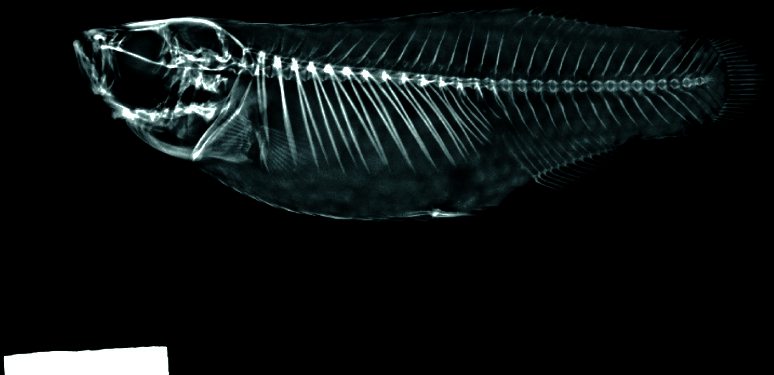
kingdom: Animalia
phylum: Chordata
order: Cyprinodontiformes
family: Valenciidae
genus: Valencia
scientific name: Valencia hispanica
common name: Valencia toothcarp
